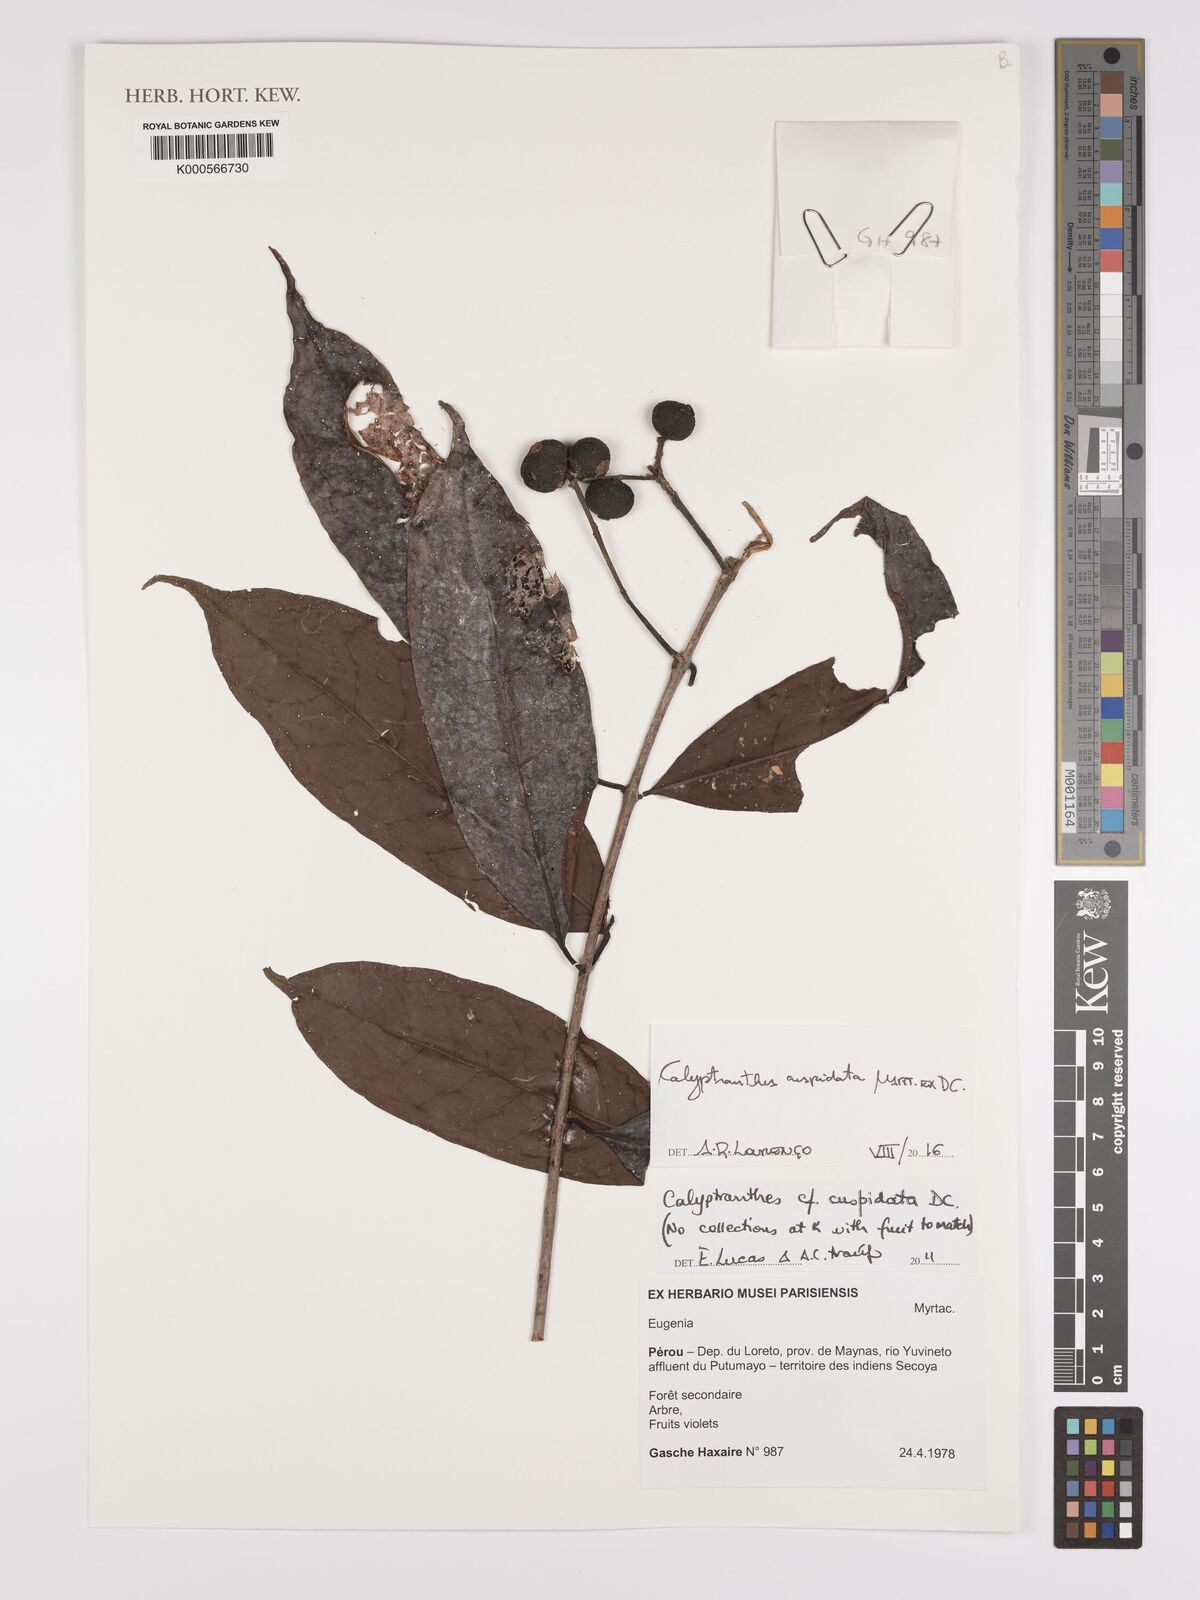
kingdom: Plantae
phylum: Tracheophyta
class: Magnoliopsida
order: Myrtales
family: Myrtaceae
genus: Myrcia
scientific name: Myrcia cuspidata
